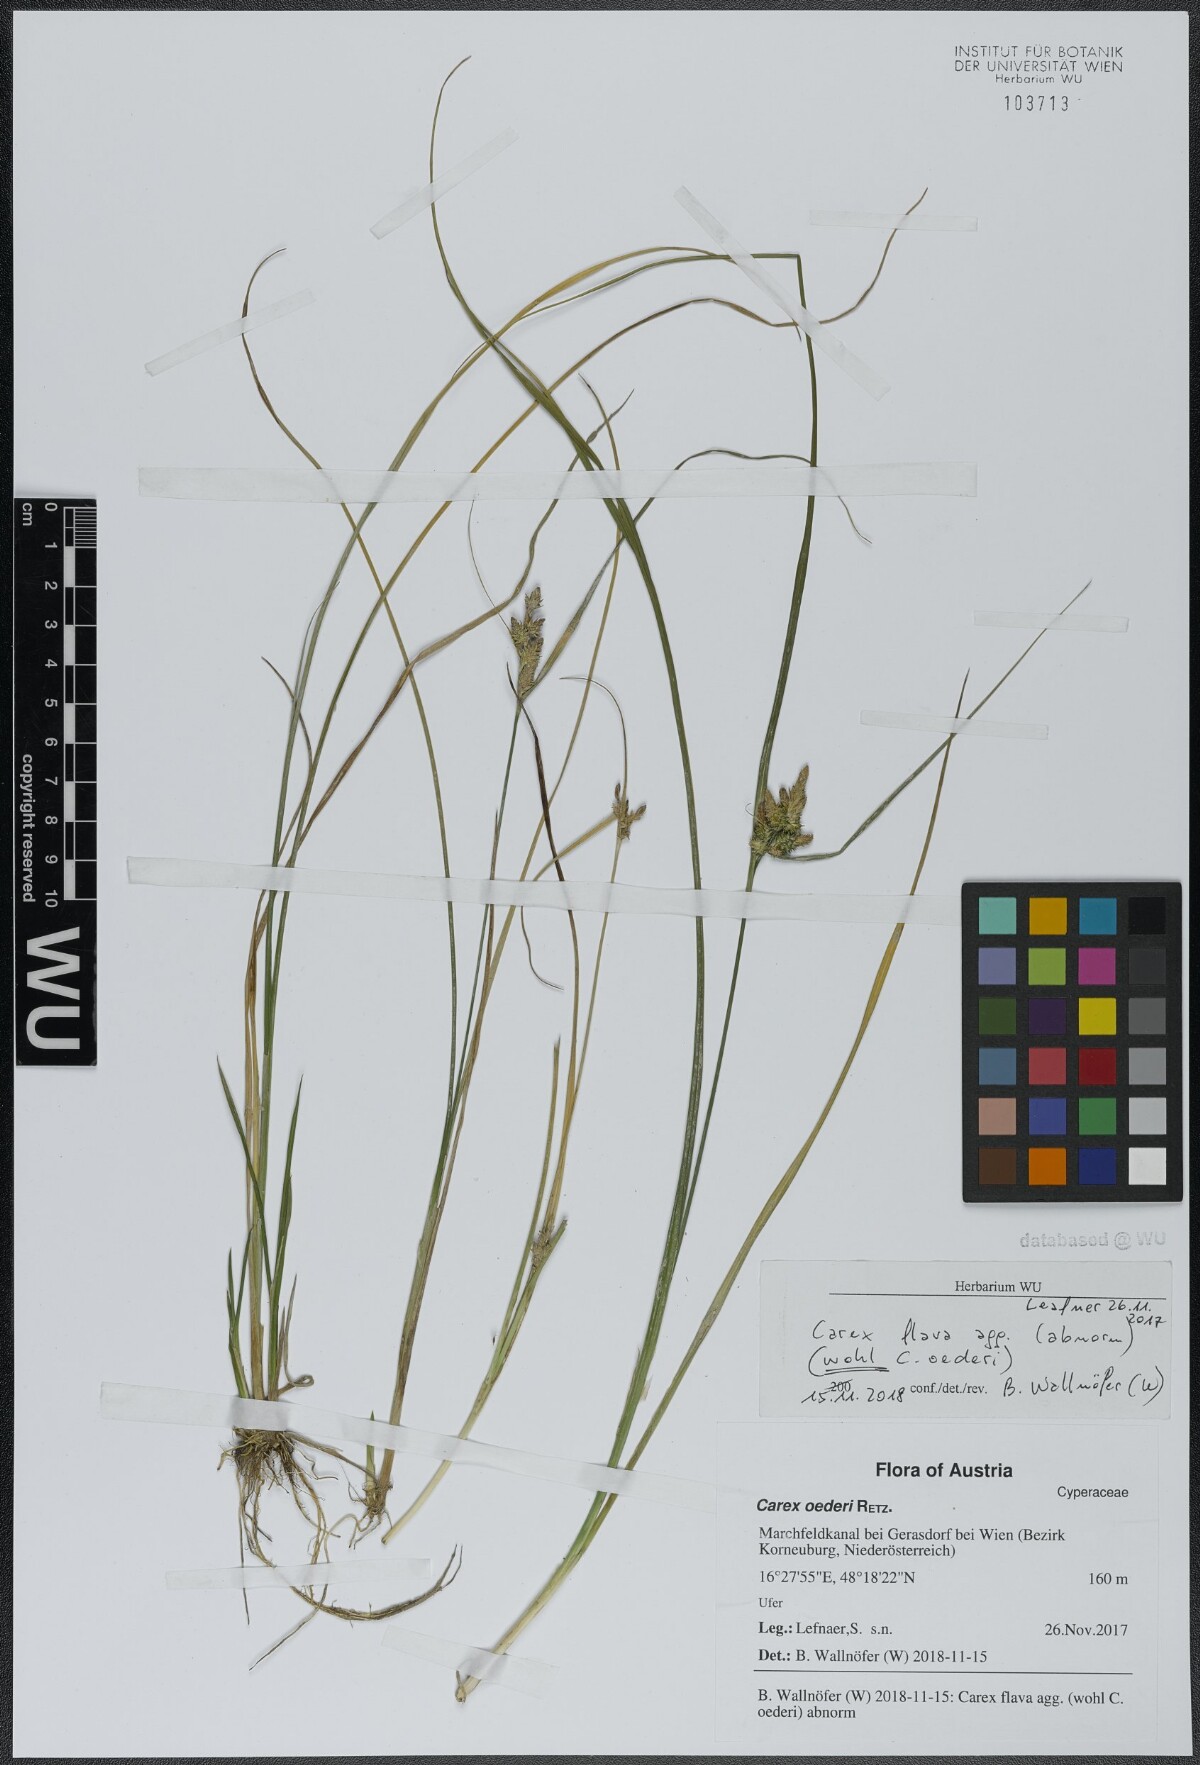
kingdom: Plantae
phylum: Tracheophyta
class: Liliopsida
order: Poales
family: Cyperaceae
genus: Carex
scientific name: Carex oederi
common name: Common & small-fruited yellow-sedge
